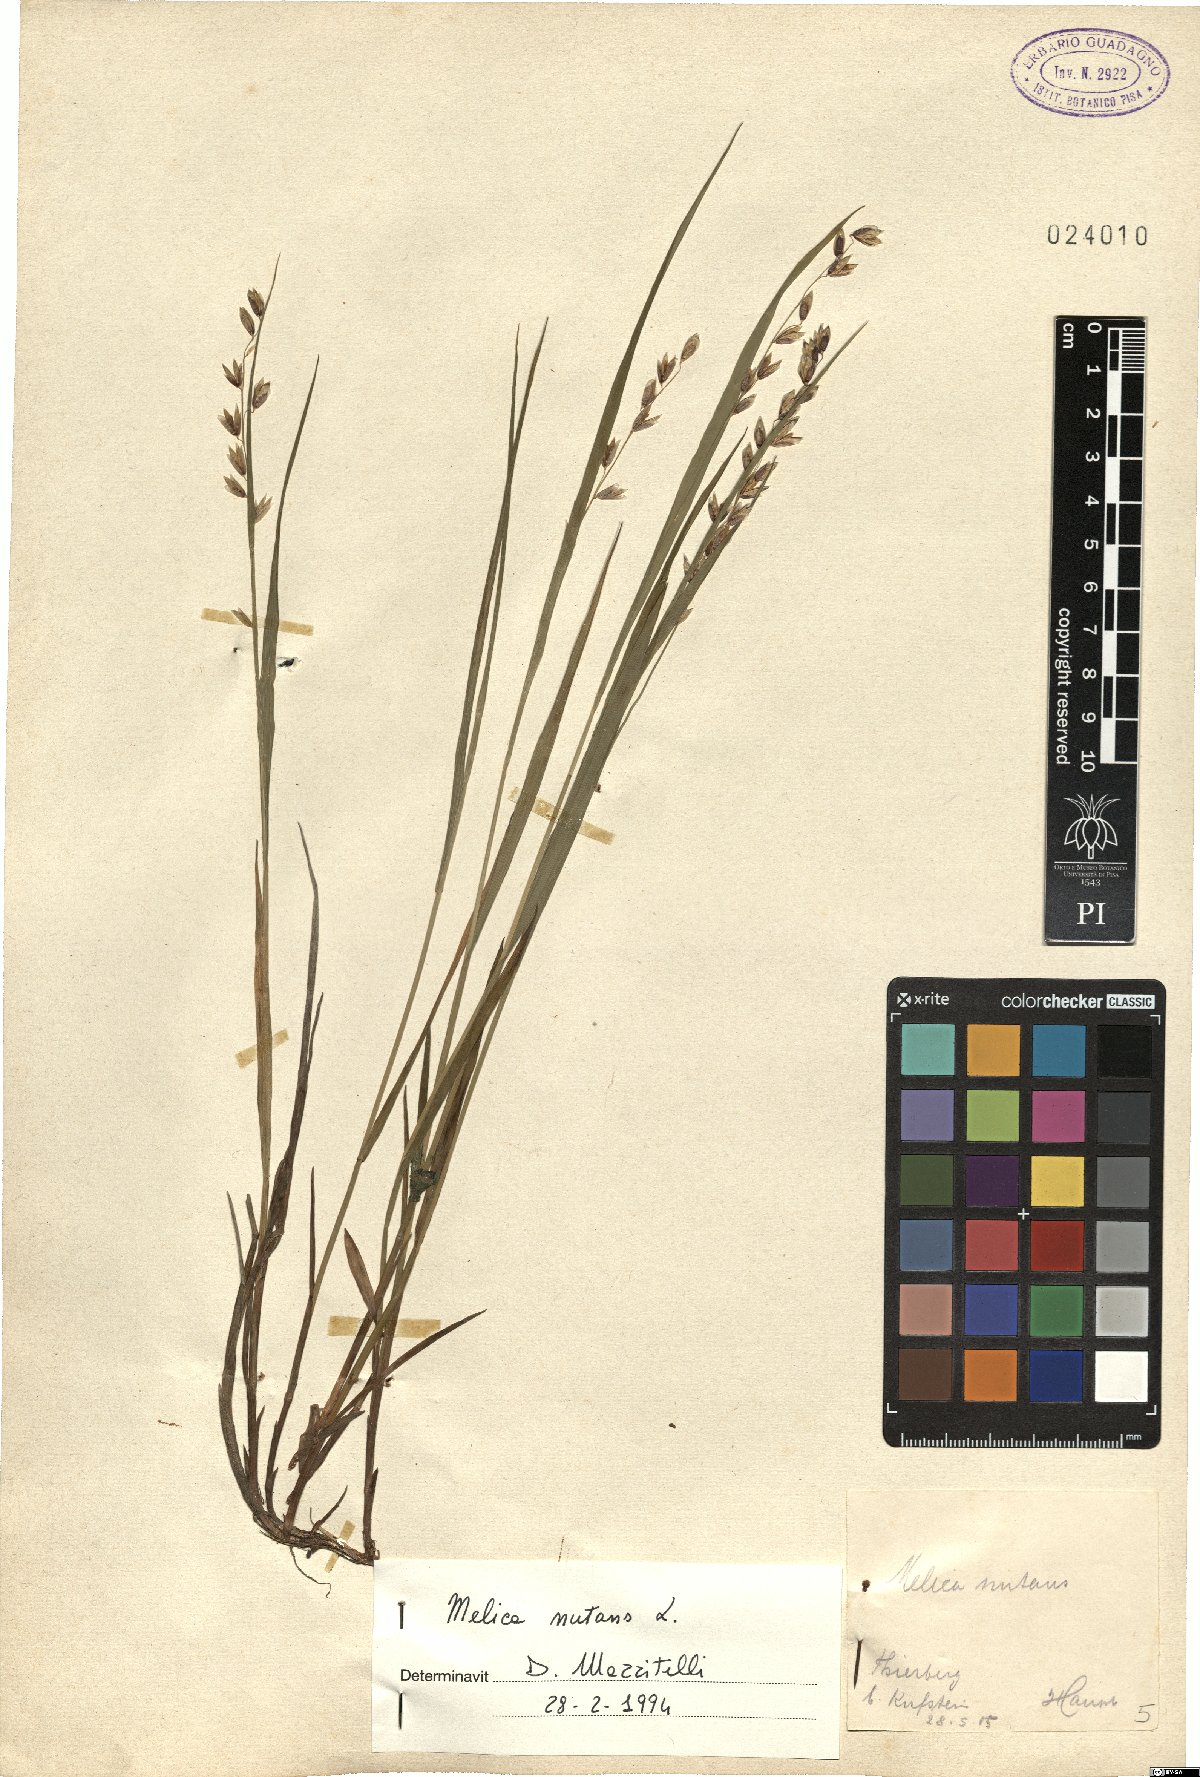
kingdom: Plantae
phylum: Tracheophyta
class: Liliopsida
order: Poales
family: Poaceae
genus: Melica
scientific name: Melica nutans
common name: Mountain melick
